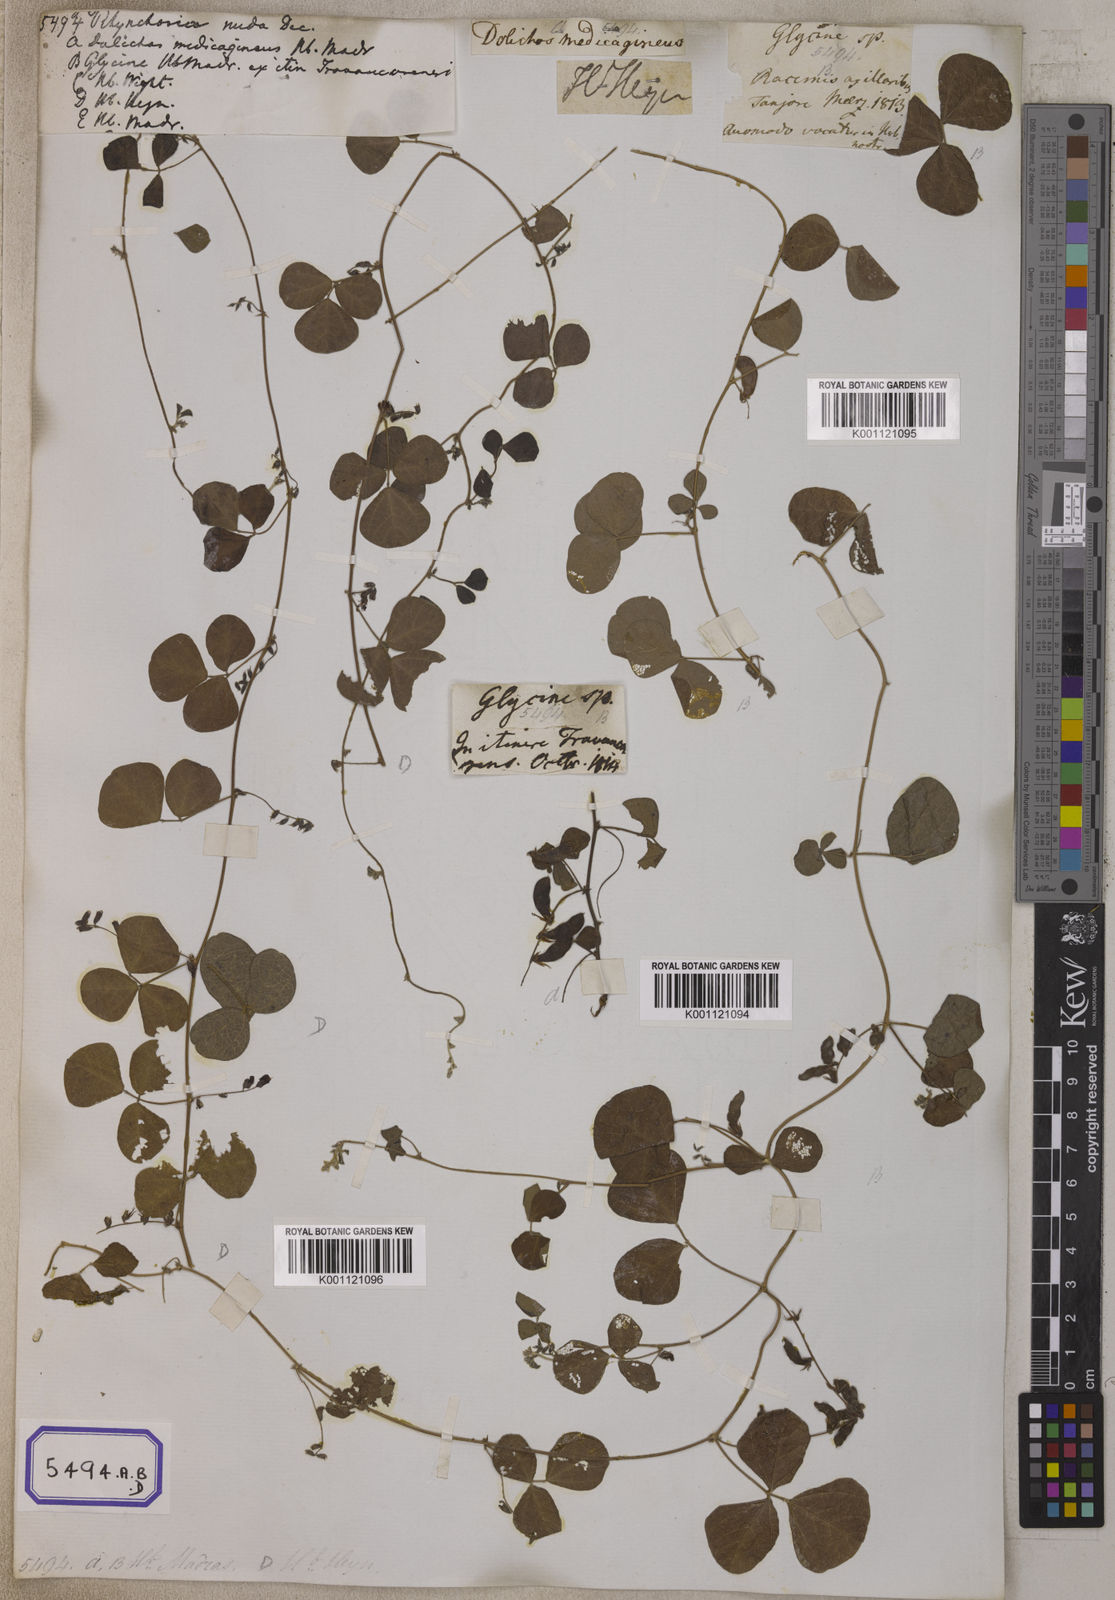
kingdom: Plantae
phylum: Tracheophyta
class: Magnoliopsida
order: Fabales
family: Fabaceae
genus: Rhynchosia
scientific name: Rhynchosia minima
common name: Least snoutbean
